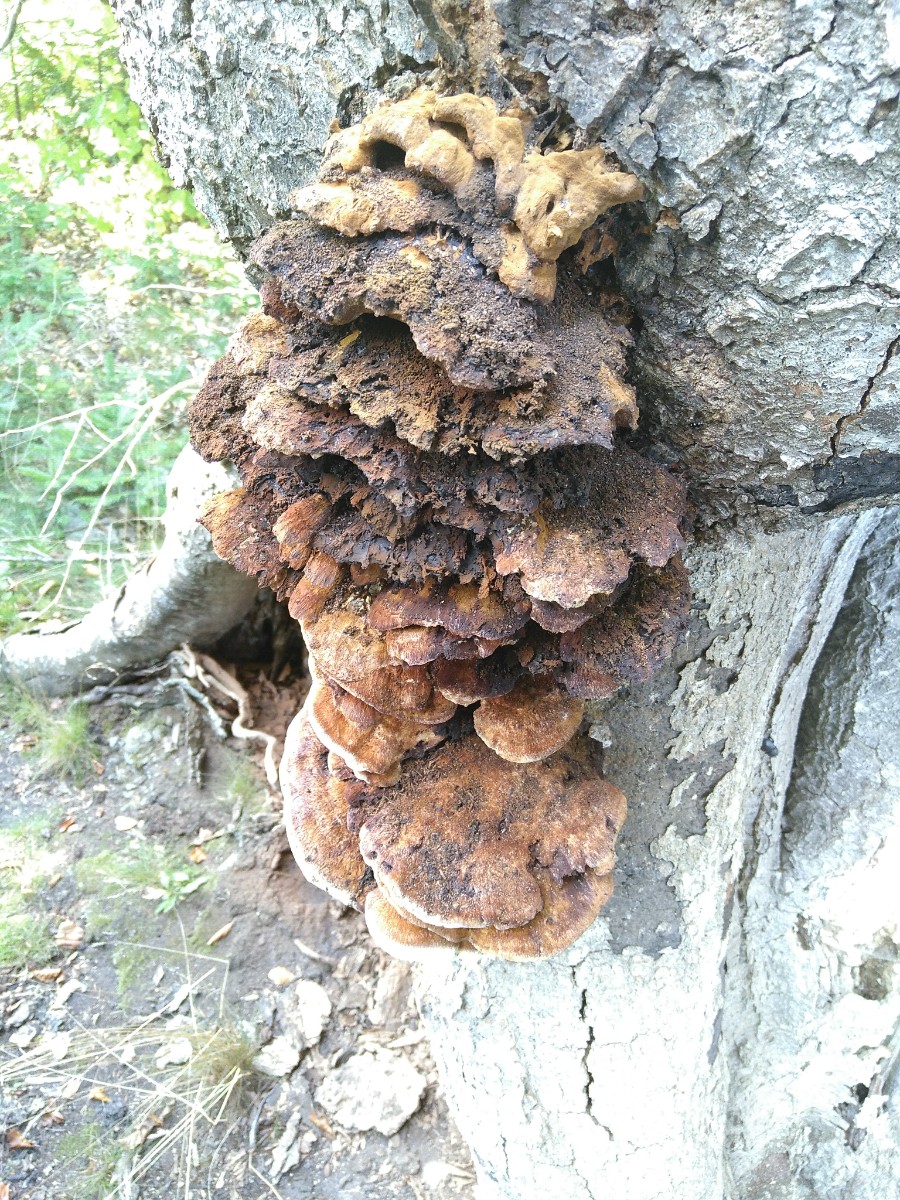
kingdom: Fungi
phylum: Basidiomycota
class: Agaricomycetes
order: Hymenochaetales
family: Hymenochaetaceae
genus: Inonotus
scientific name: Inonotus cuticularis
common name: kroghåret spejlporesvamp
